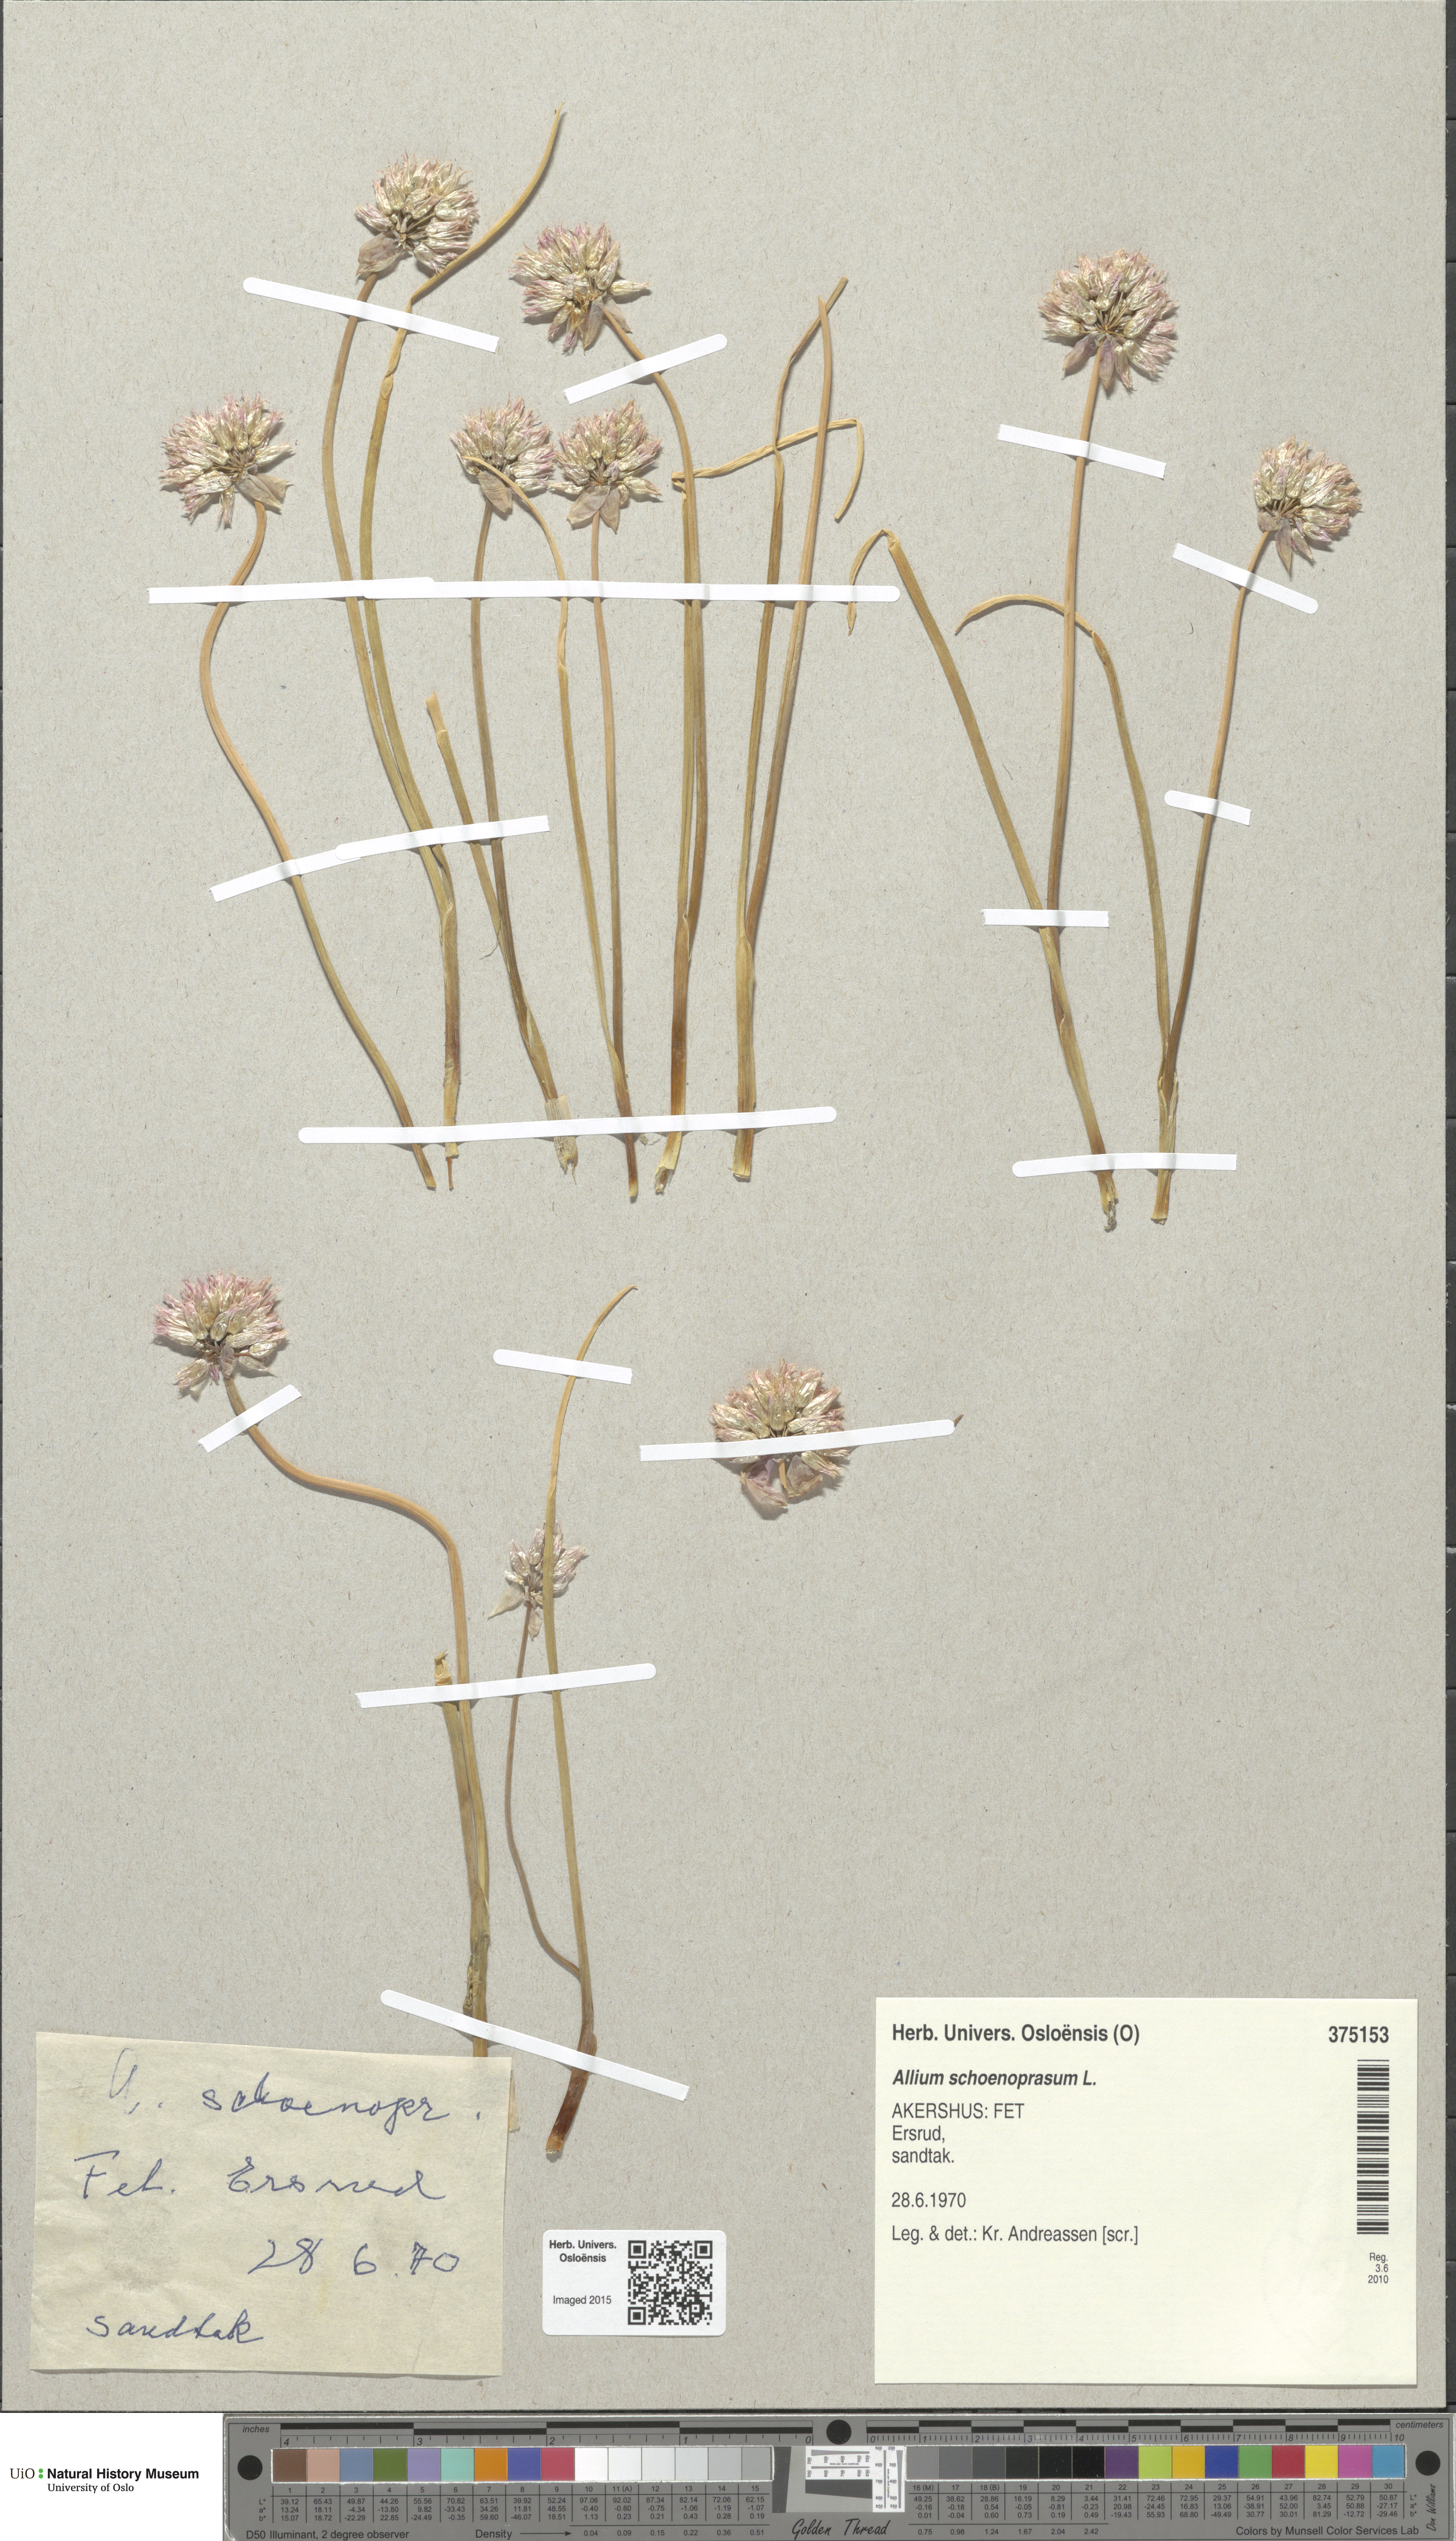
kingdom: Plantae
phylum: Tracheophyta
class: Liliopsida
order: Asparagales
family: Amaryllidaceae
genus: Allium
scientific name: Allium schoenoprasum
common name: Chives
